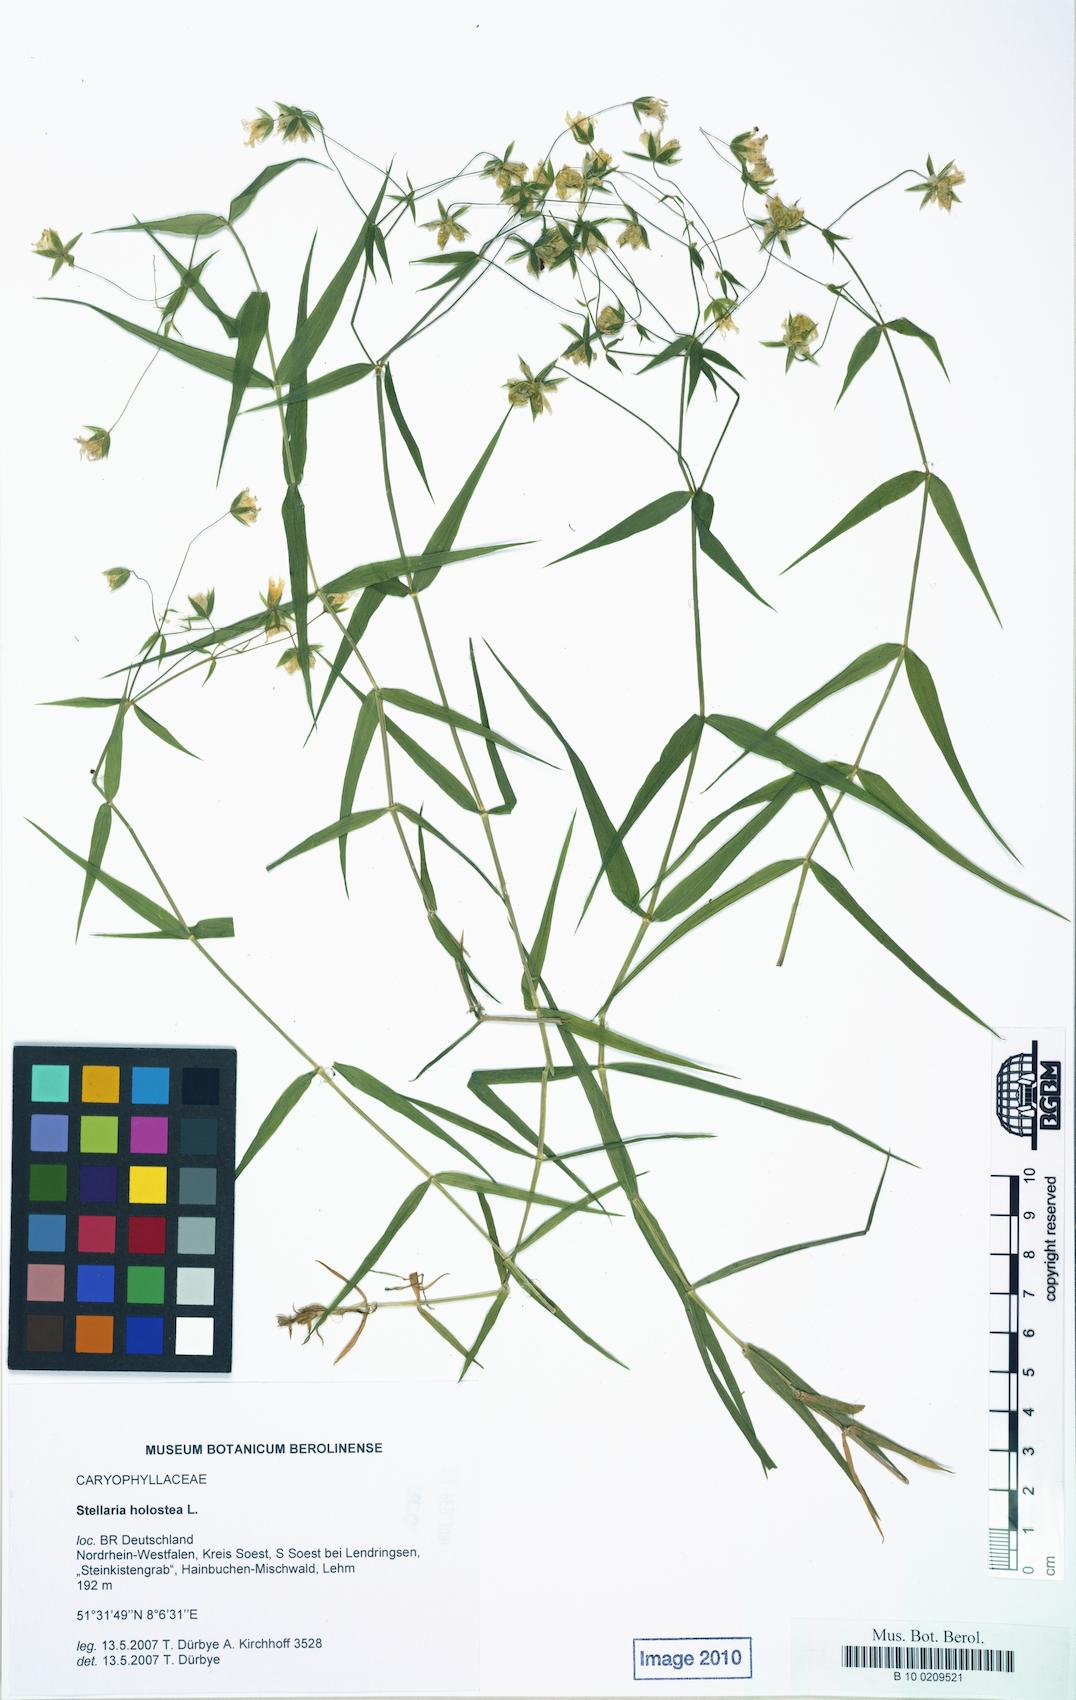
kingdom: Plantae
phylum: Tracheophyta
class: Magnoliopsida
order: Caryophyllales
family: Caryophyllaceae
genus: Rabelera
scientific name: Rabelera holostea
